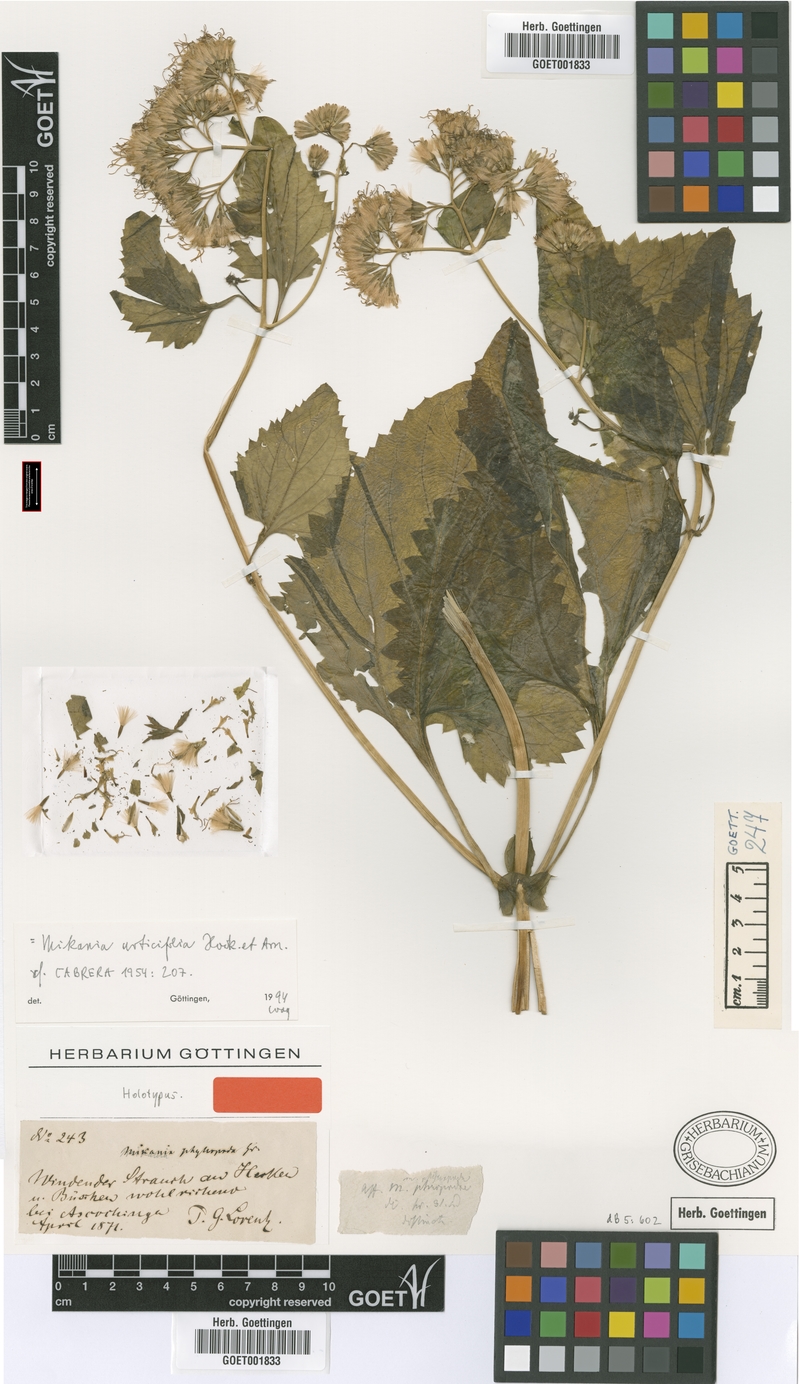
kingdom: Plantae
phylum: Tracheophyta
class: Magnoliopsida
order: Asterales
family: Asteraceae
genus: Mikania
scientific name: Mikania urticifolia
